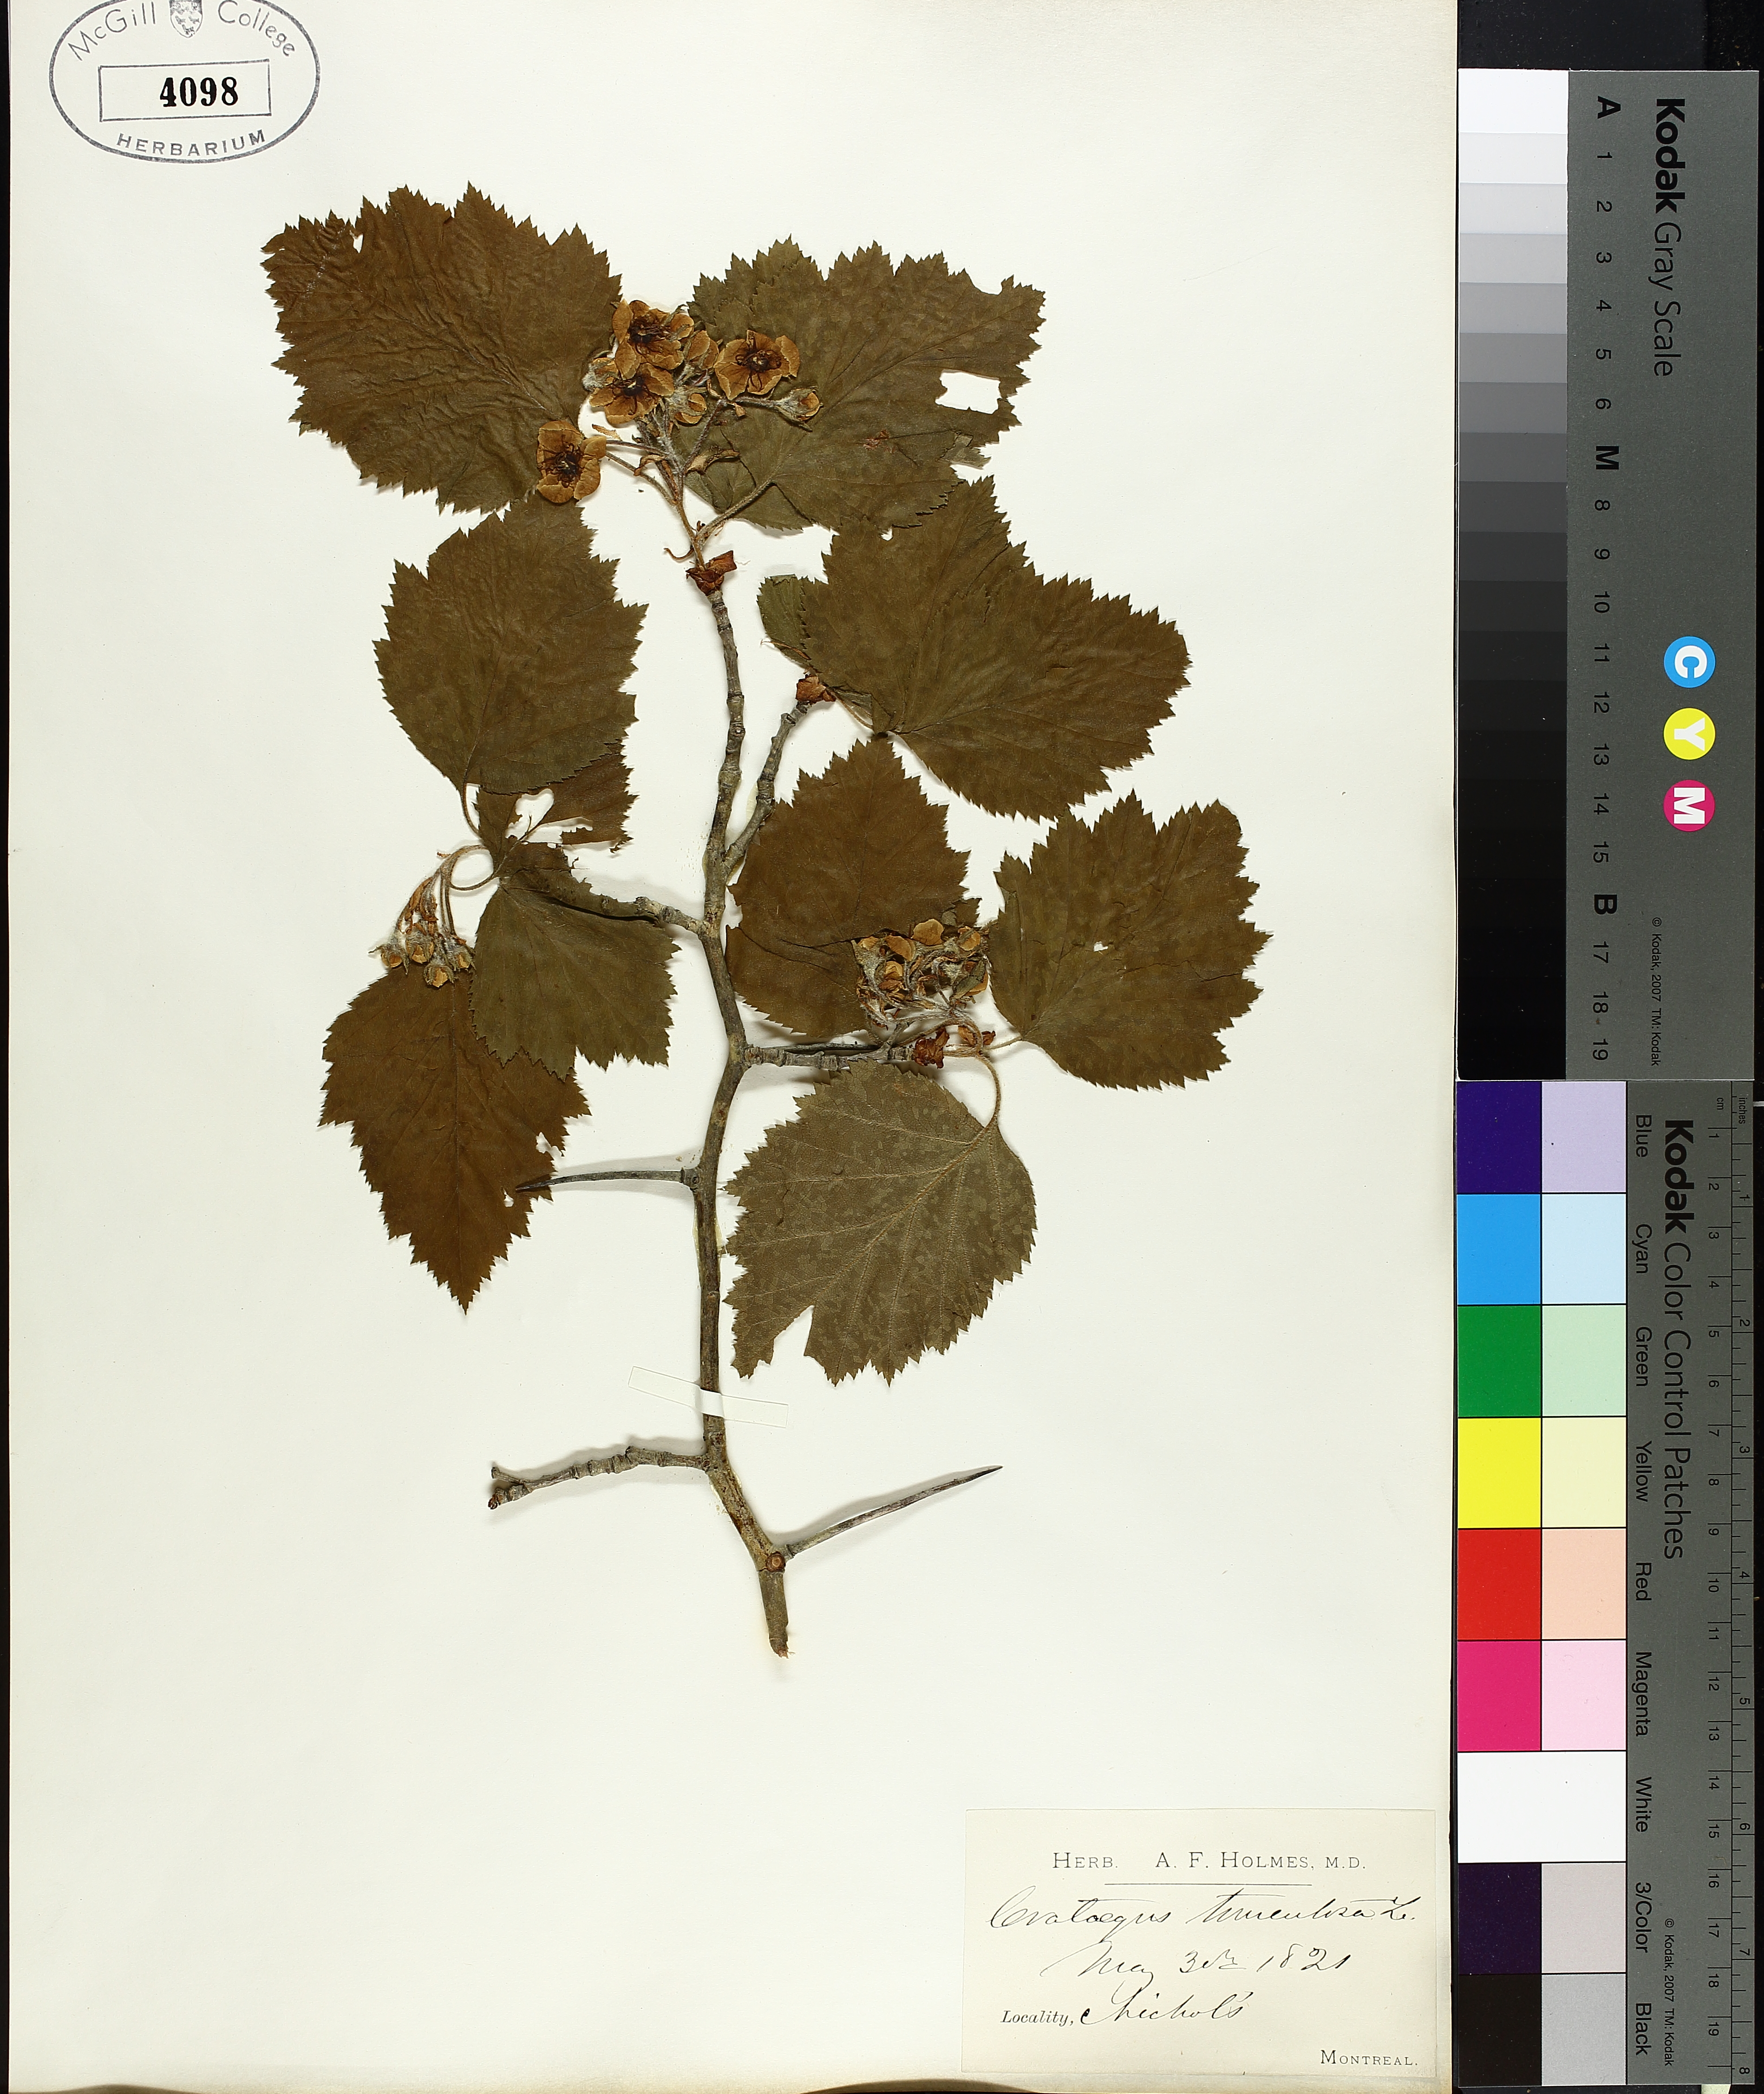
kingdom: Plantae
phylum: Tracheophyta
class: Magnoliopsida
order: Rosales
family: Rosaceae
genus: Crataegus
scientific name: Crataegus calpodendron
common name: Pear hawthorn
